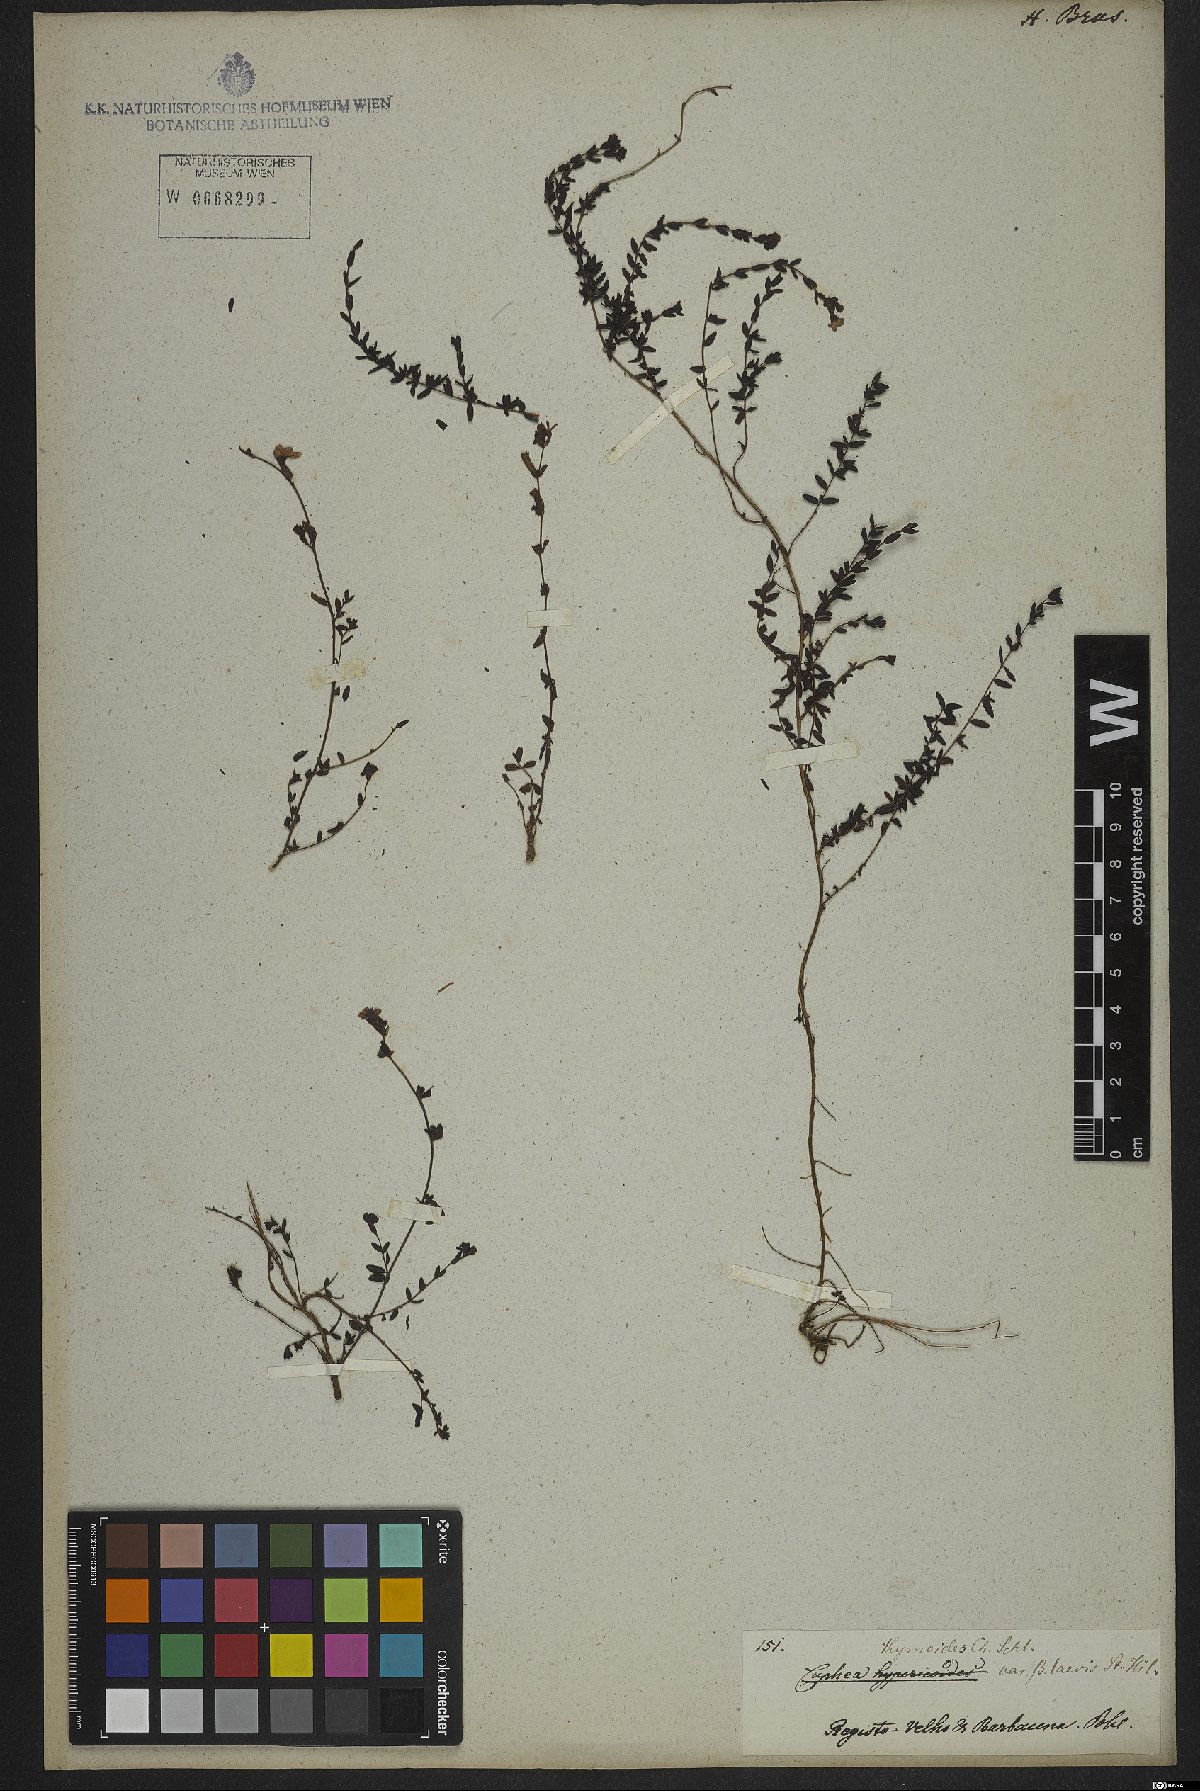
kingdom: Plantae
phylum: Tracheophyta
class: Magnoliopsida
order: Myrtales
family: Lythraceae
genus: Cuphea
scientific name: Cuphea thymoides
